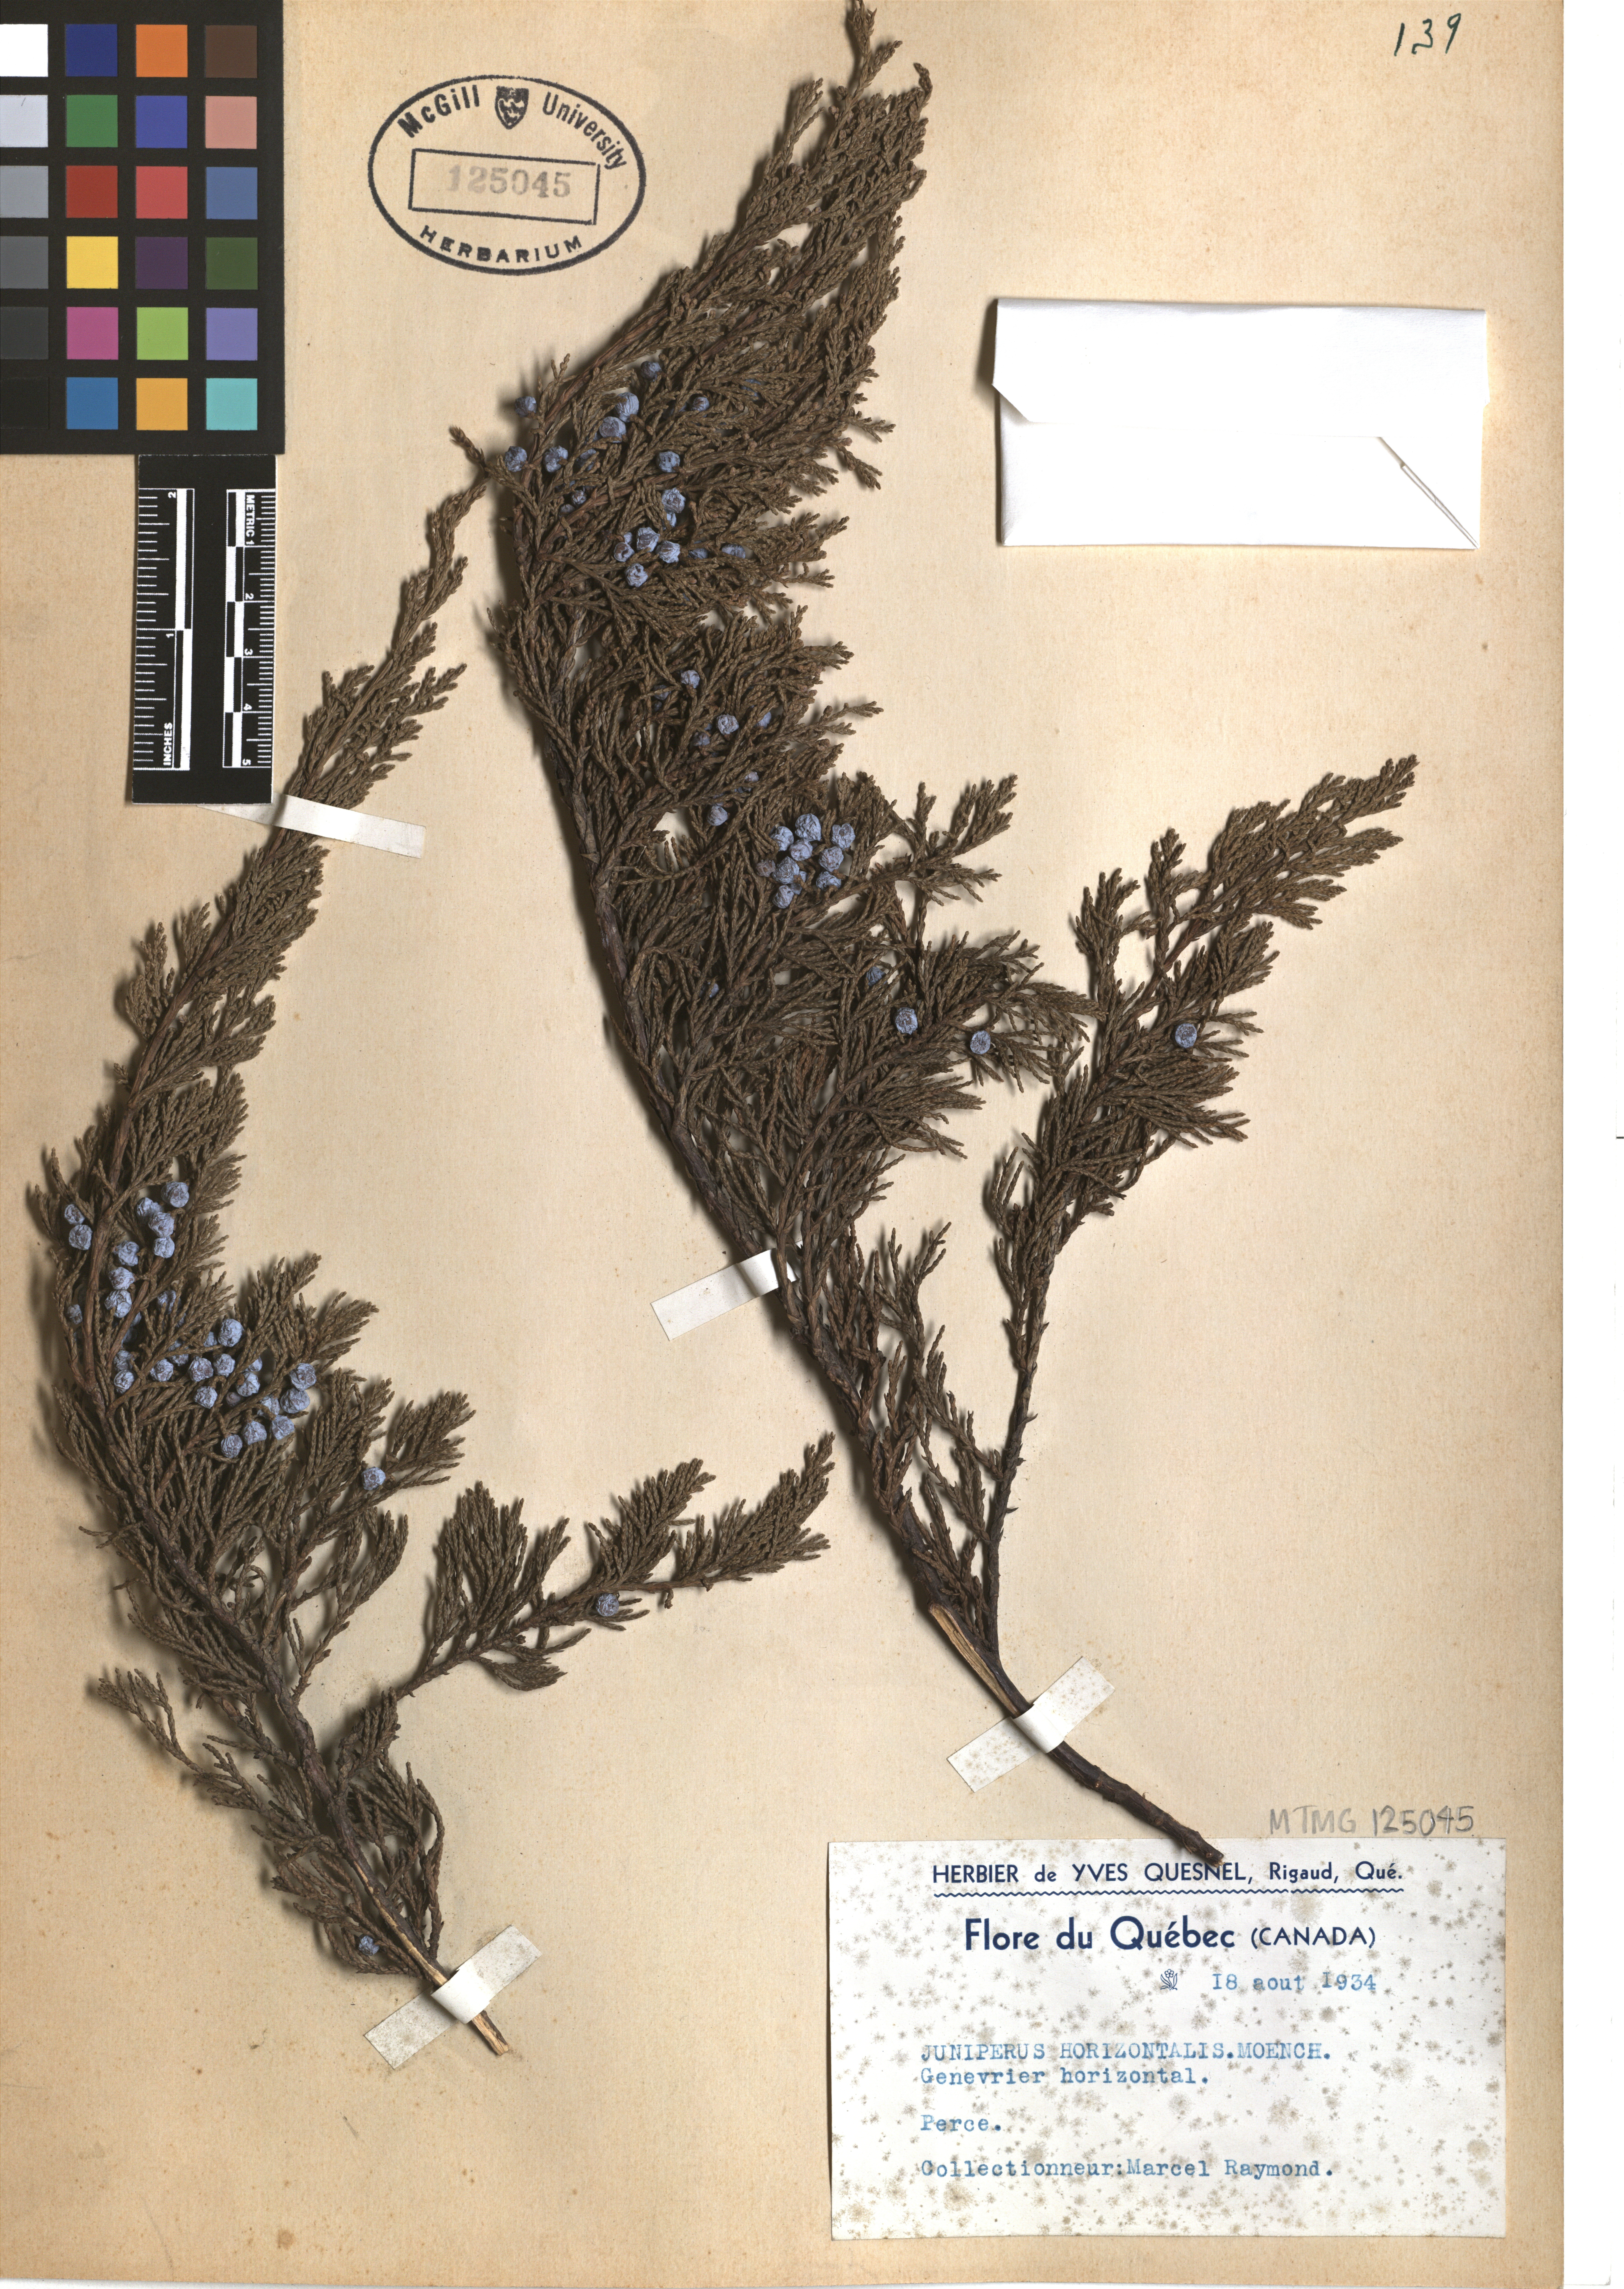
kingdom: Plantae
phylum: Tracheophyta
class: Pinopsida
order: Pinales
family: Cupressaceae
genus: Juniperus
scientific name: Juniperus horizontalis
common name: Creeping juniper
